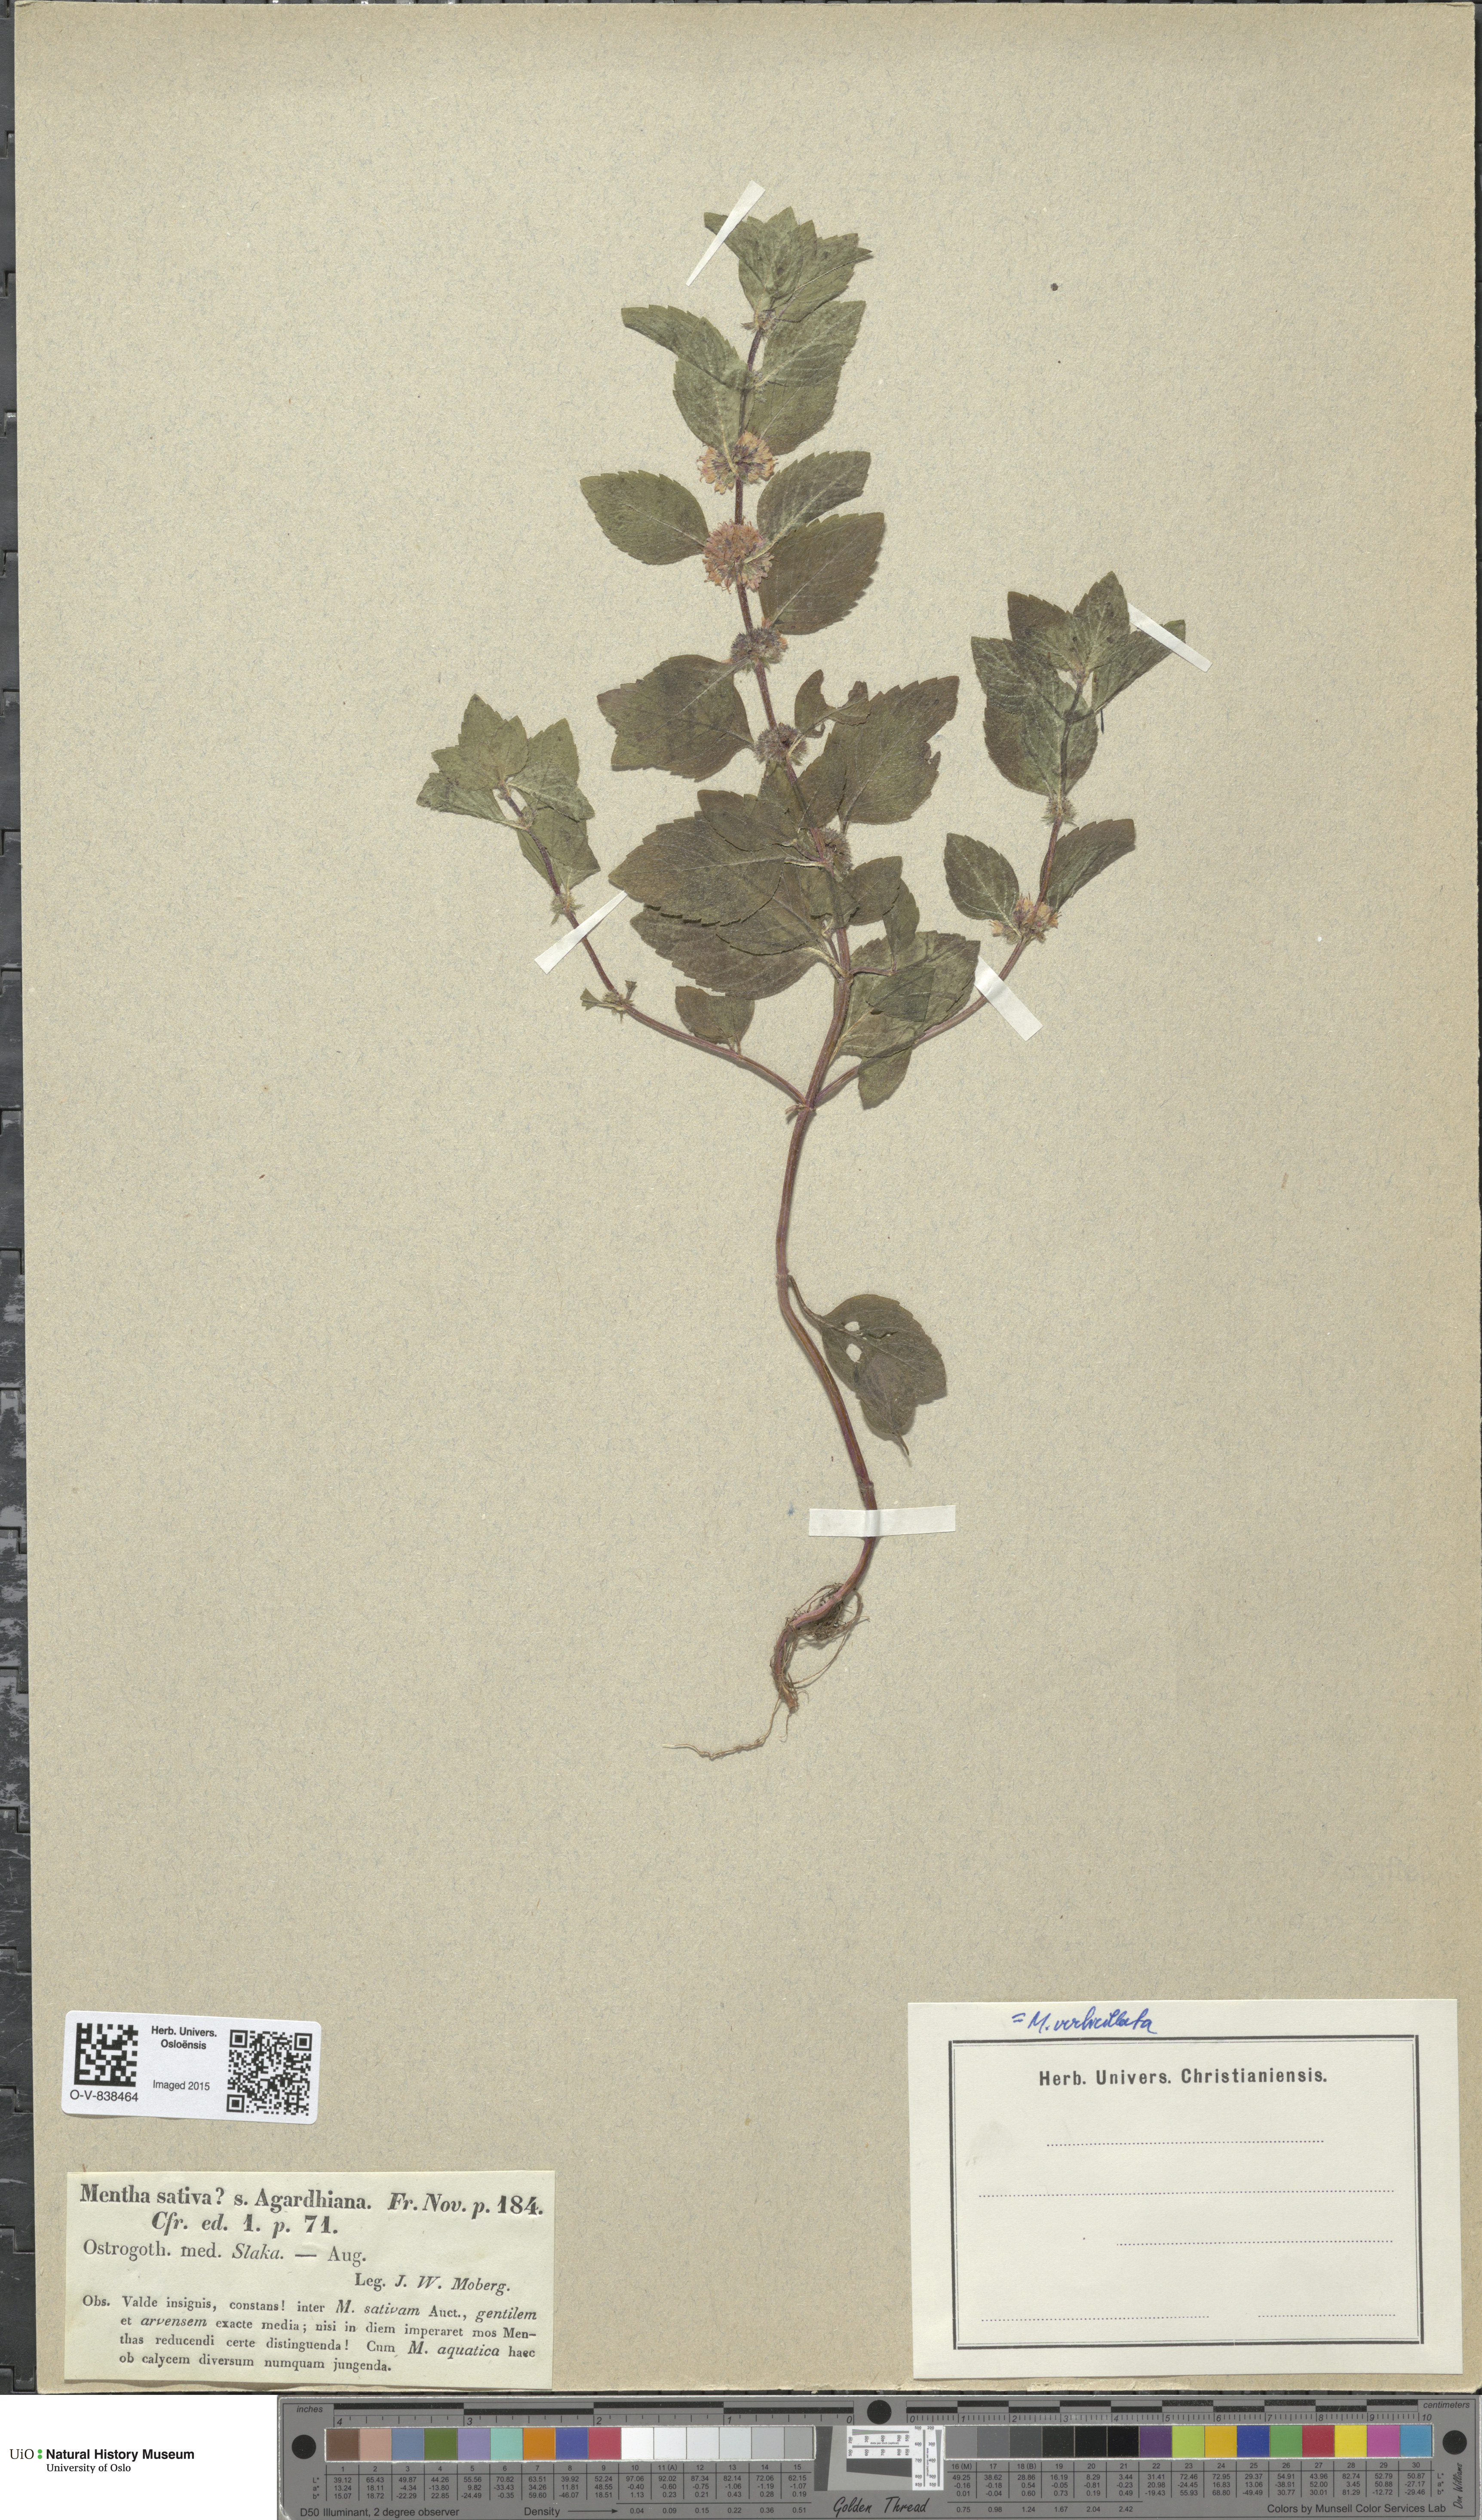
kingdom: Plantae
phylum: Tracheophyta
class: Magnoliopsida
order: Lamiales
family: Lamiaceae
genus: Mentha
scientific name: Mentha verticillata
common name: Mint
